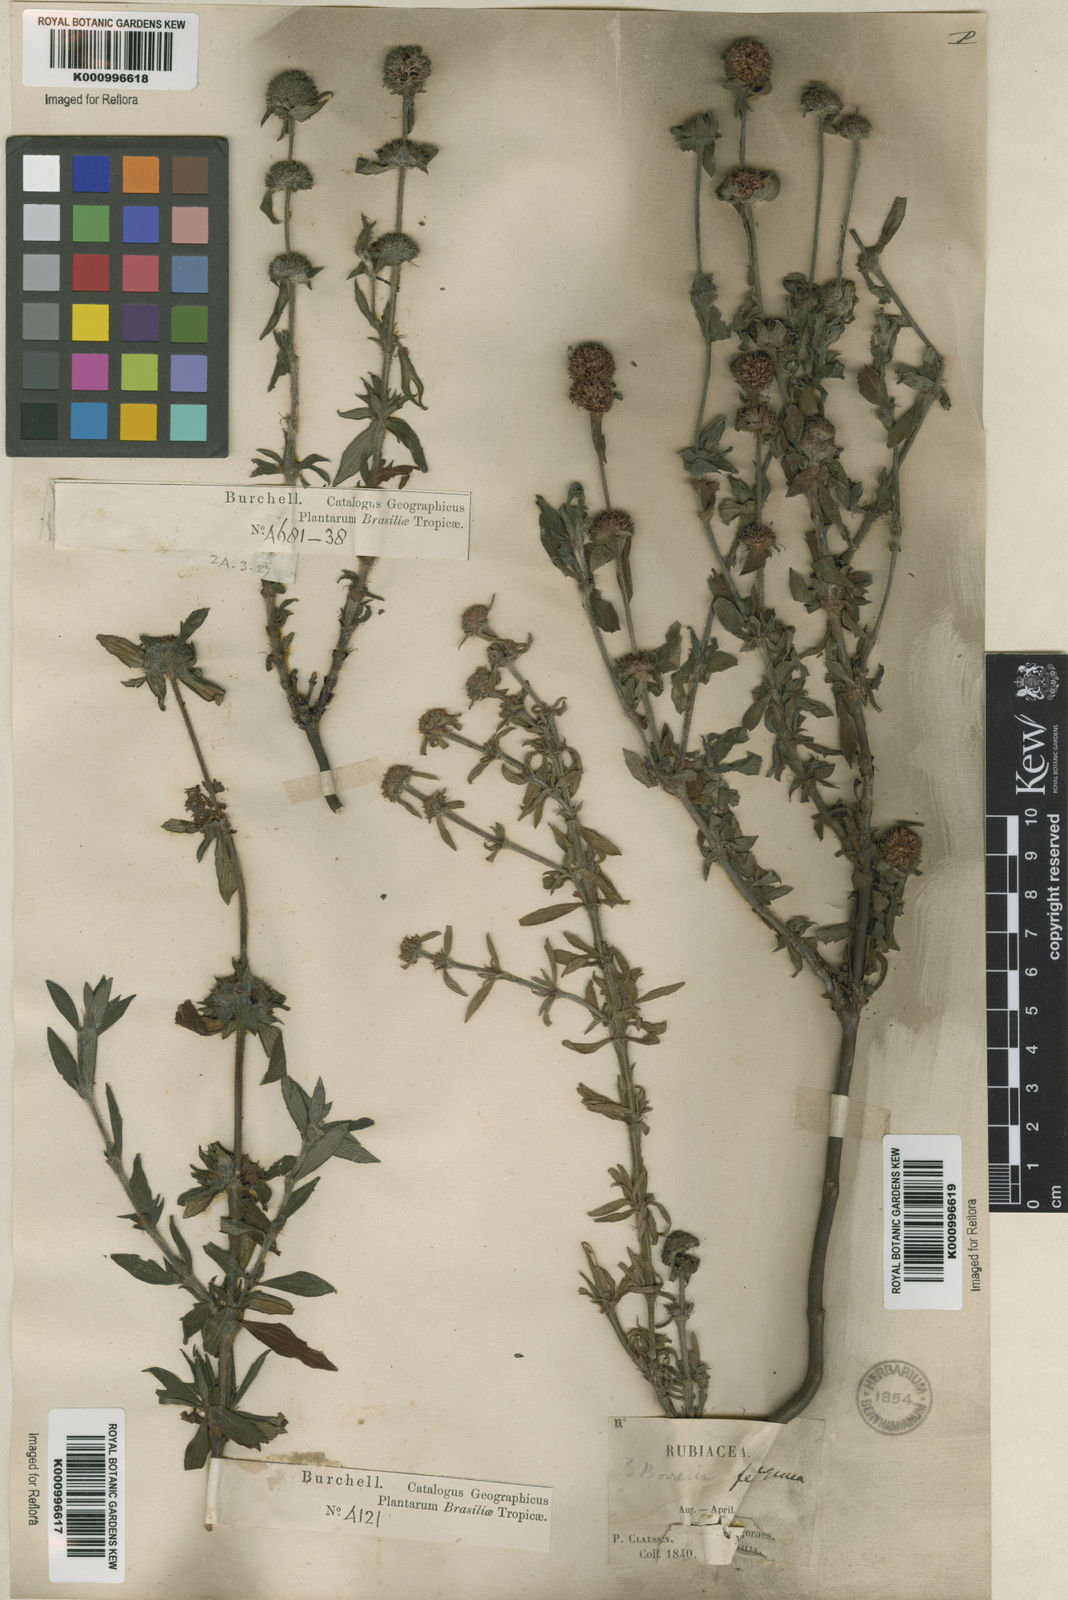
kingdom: Plantae
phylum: Tracheophyta
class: Magnoliopsida
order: Gentianales
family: Rubiaceae
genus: Spermacoce
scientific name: Spermacoce
